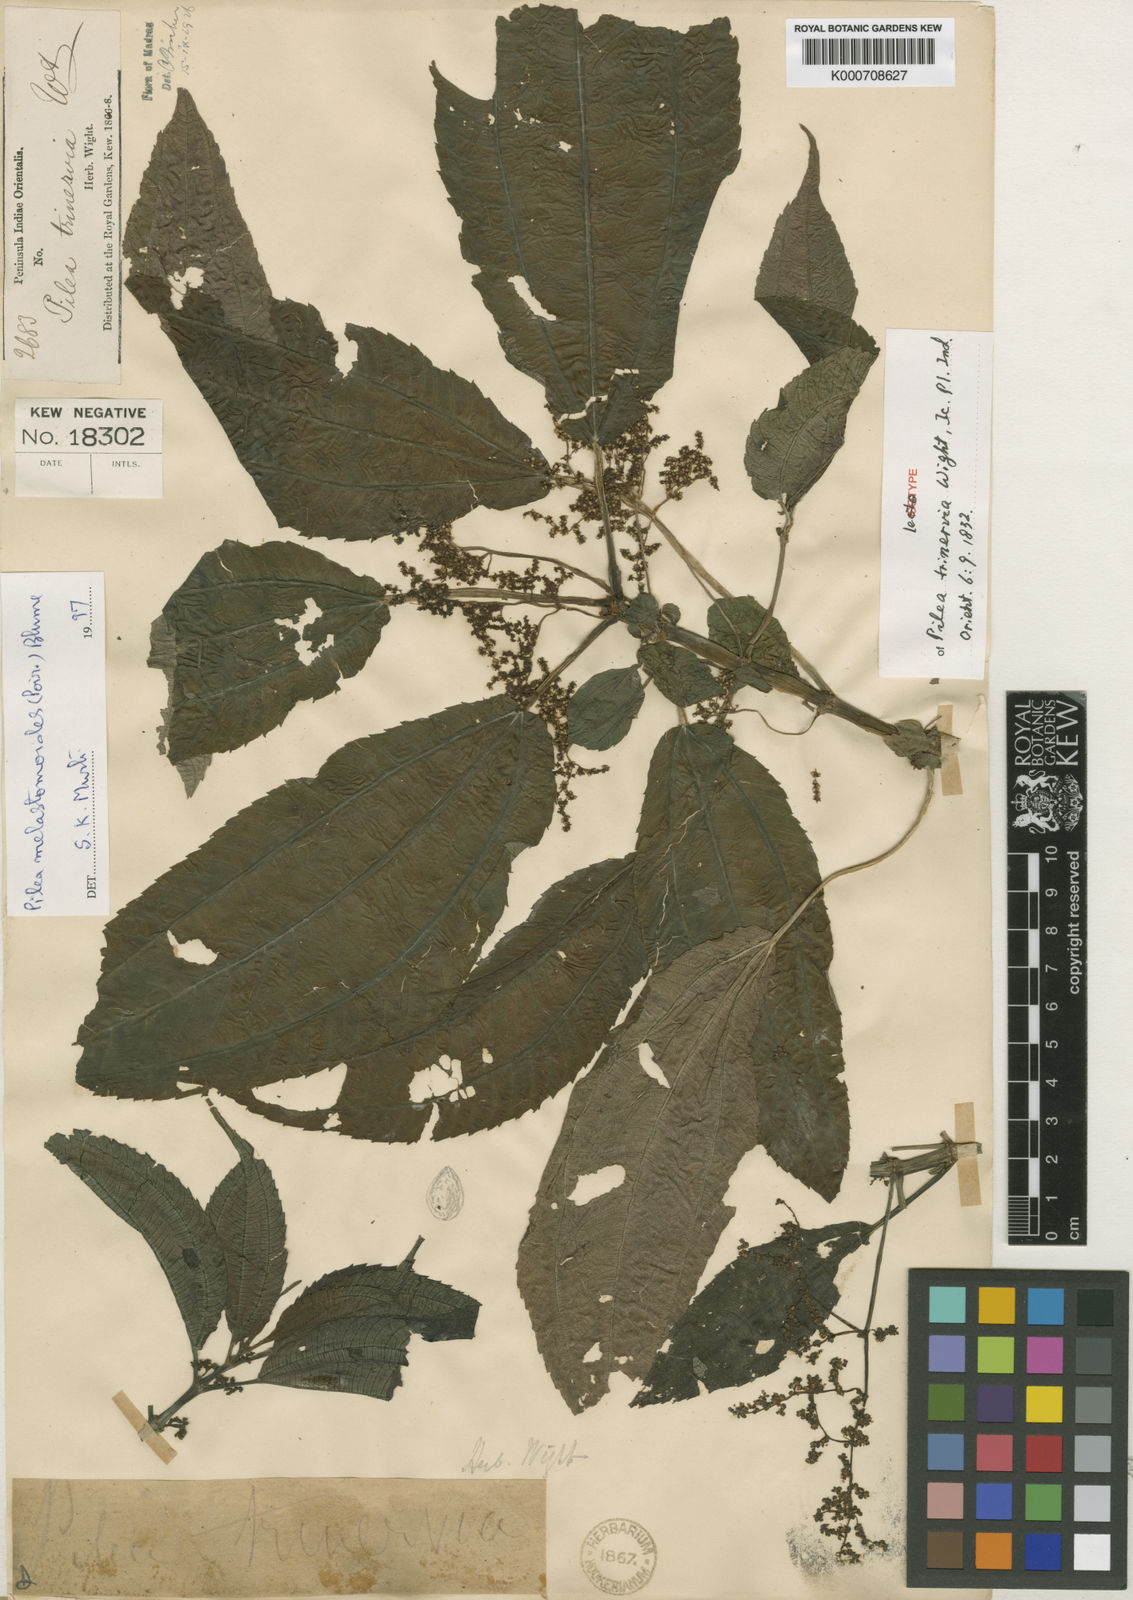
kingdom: Plantae
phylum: Tracheophyta
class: Magnoliopsida
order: Rosales
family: Urticaceae
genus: Pilea
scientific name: Pilea
